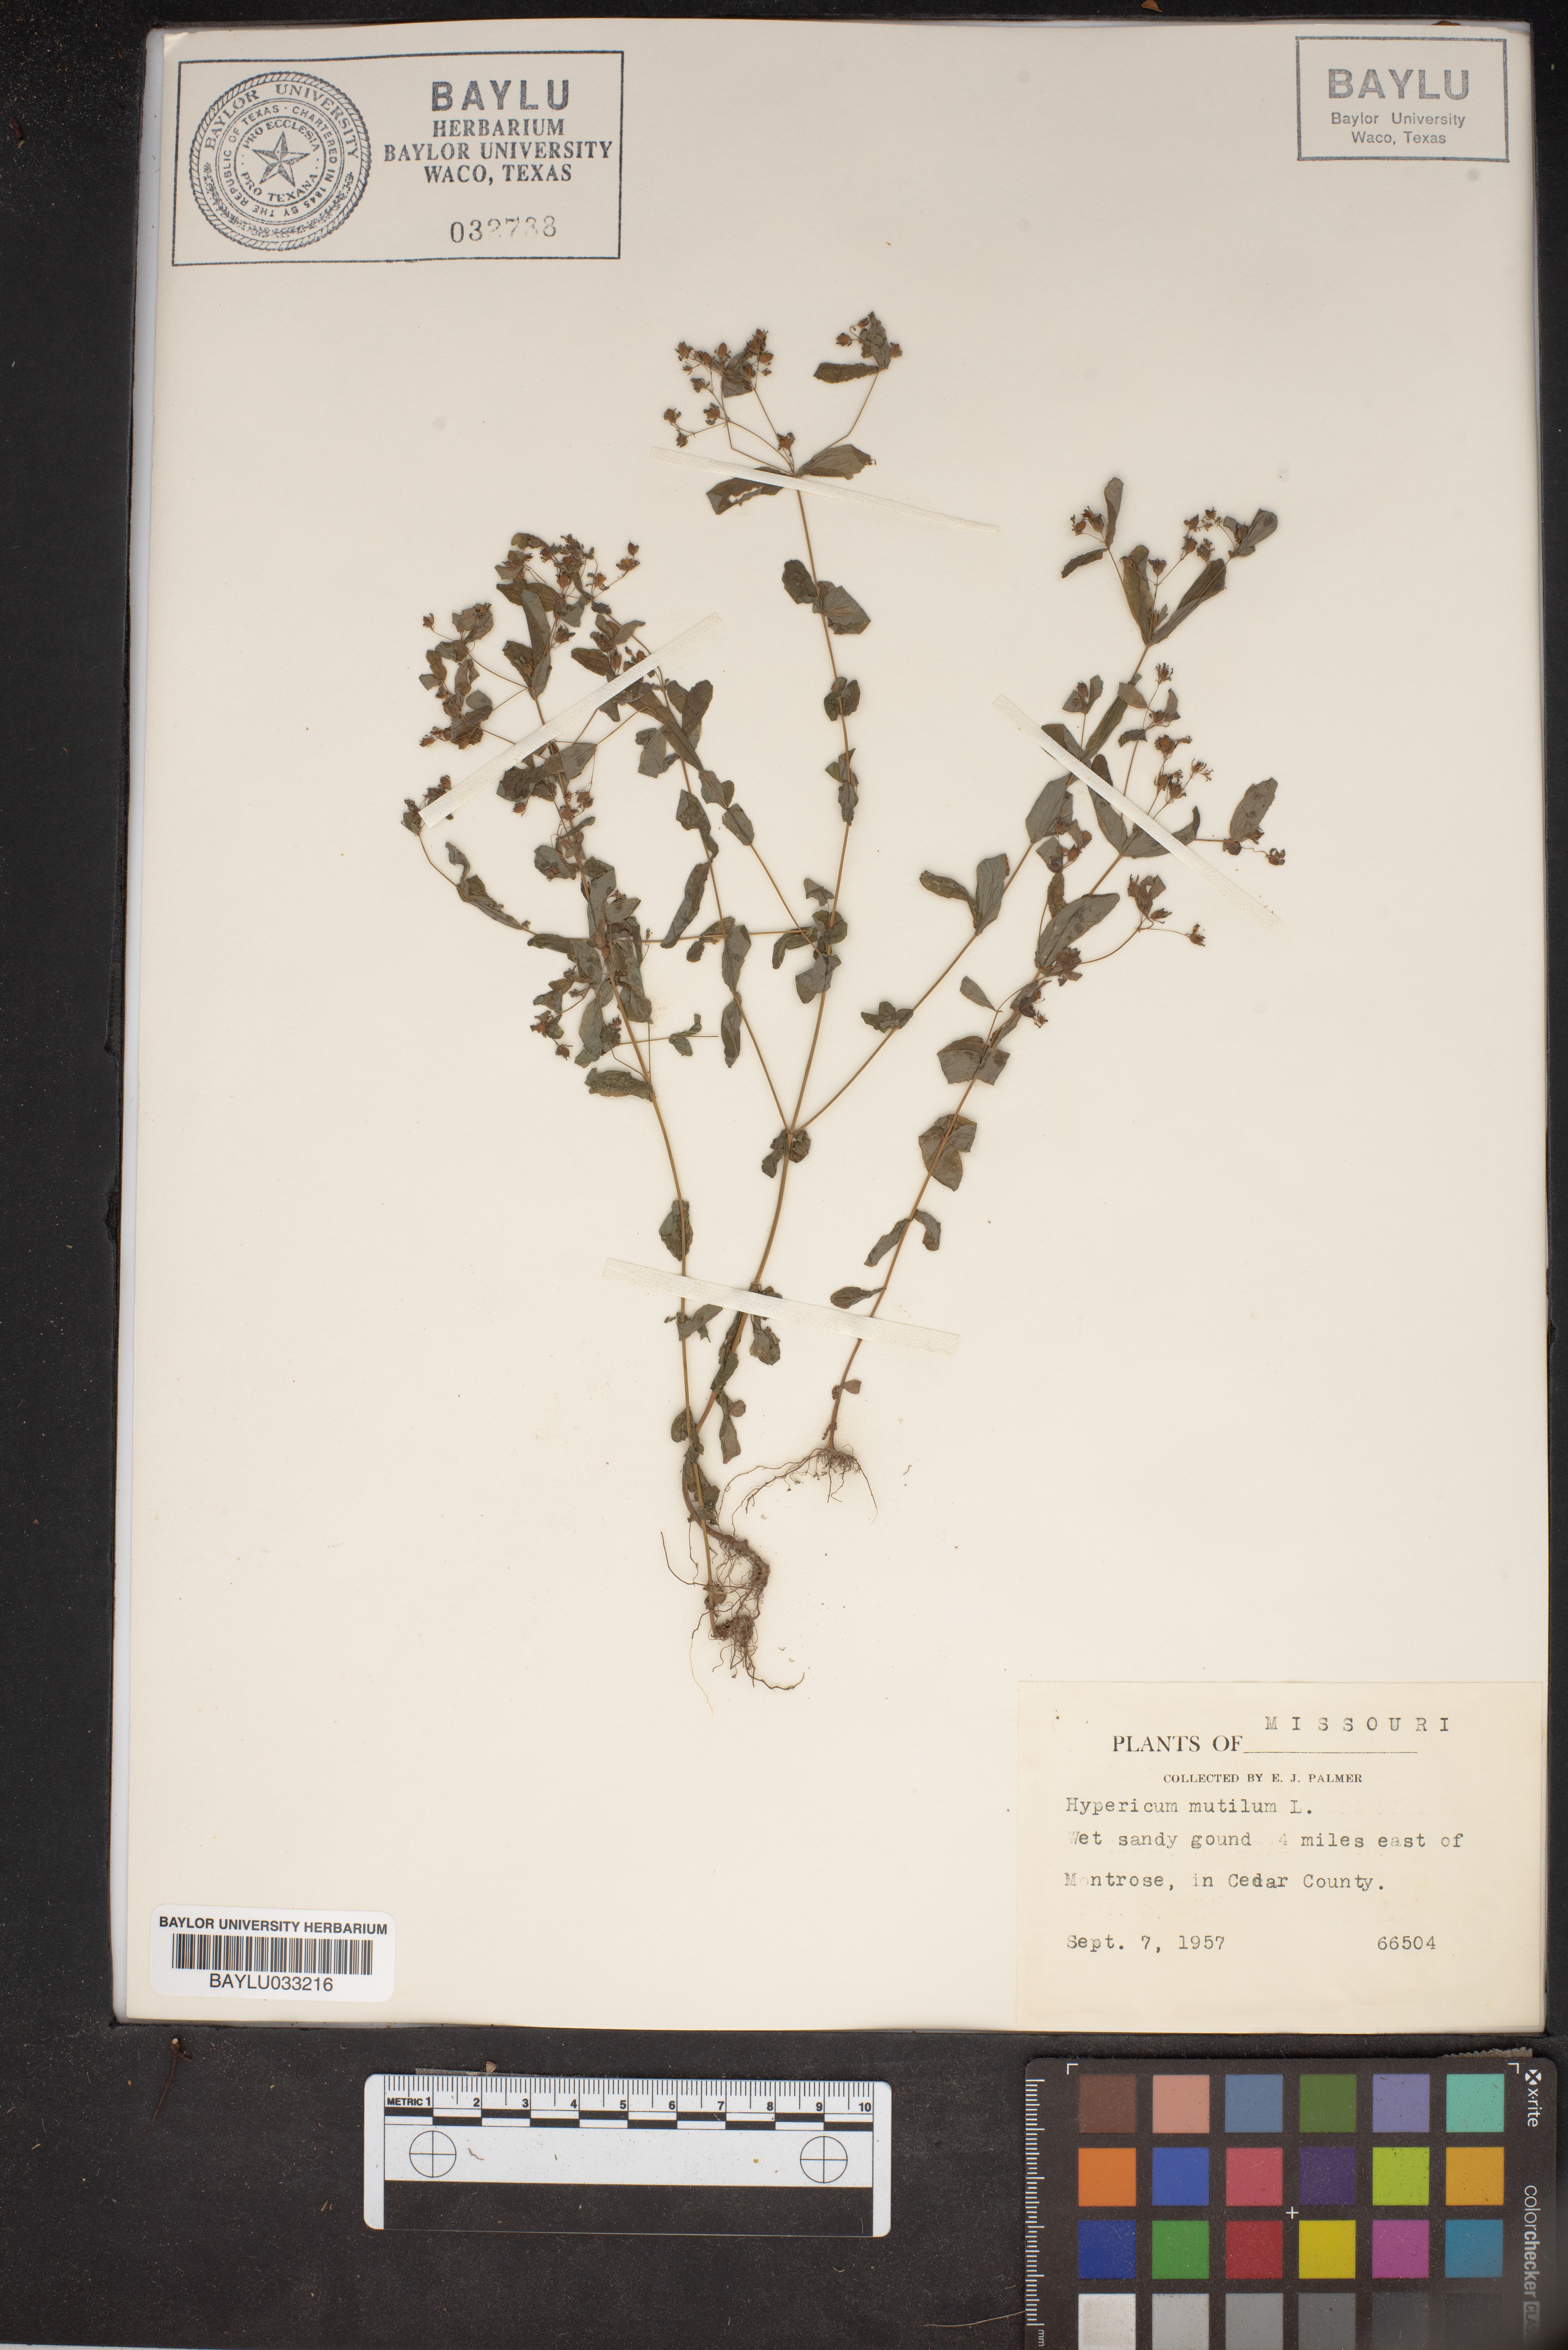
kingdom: Plantae
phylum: Tracheophyta
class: Magnoliopsida
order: Malpighiales
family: Hypericaceae
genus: Hypericum
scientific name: Hypericum mutilum
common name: Dwarf st. john's-wort
